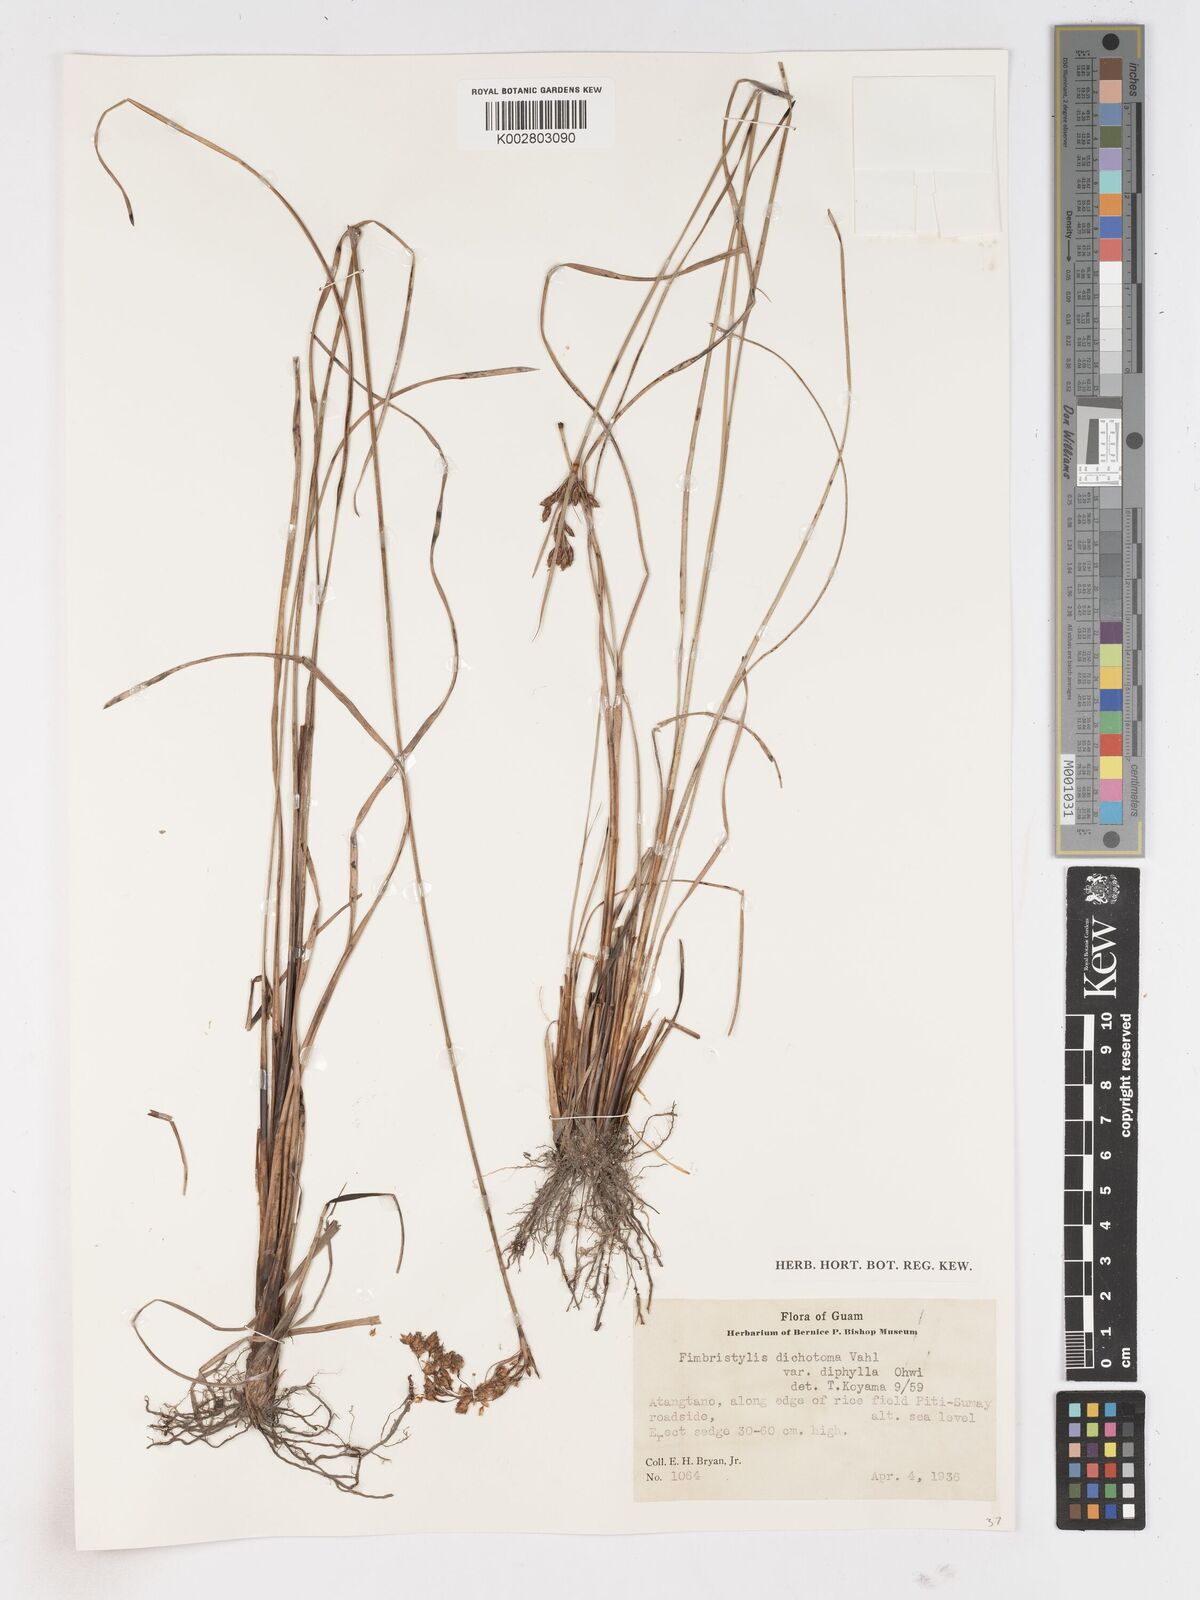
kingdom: Plantae
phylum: Tracheophyta
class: Liliopsida
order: Poales
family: Cyperaceae
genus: Fimbristylis
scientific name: Fimbristylis dichotoma
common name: Forked fimbry
